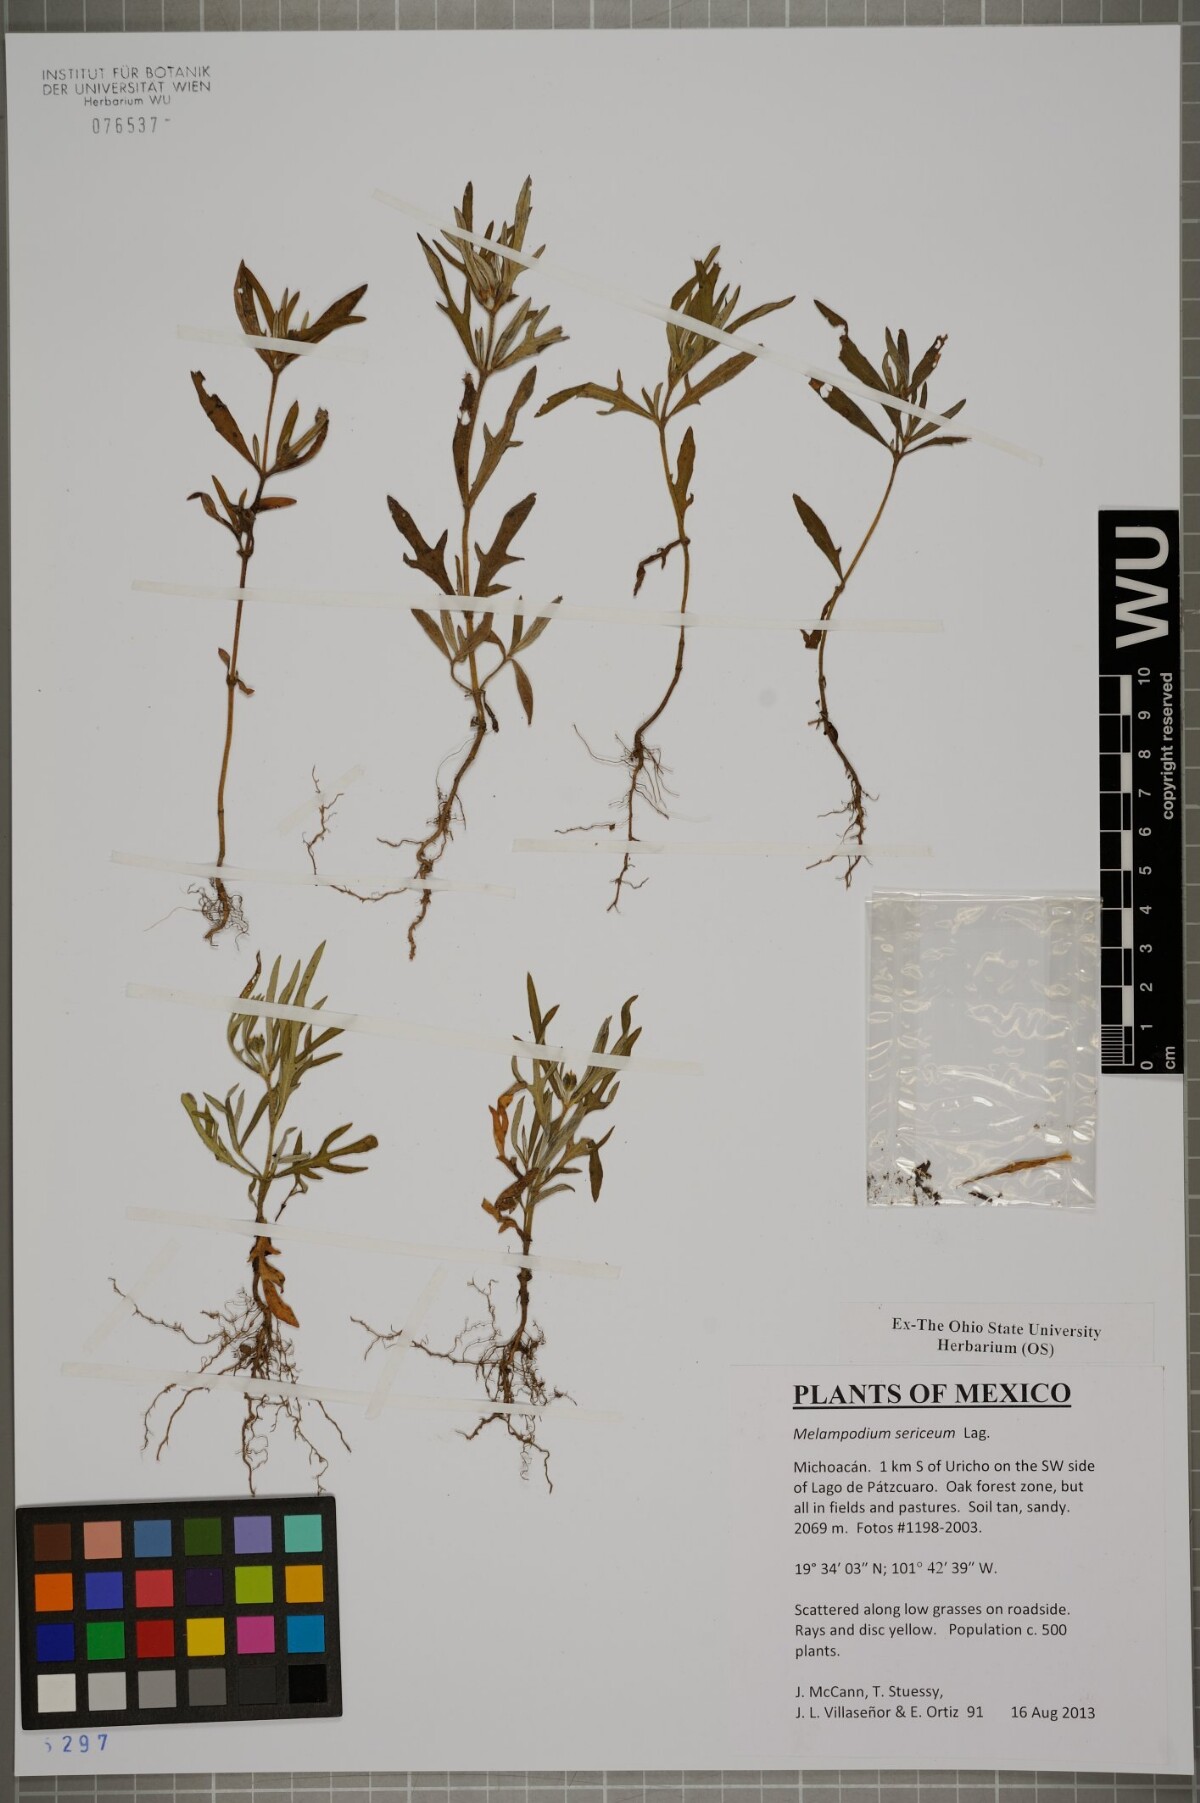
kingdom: Plantae
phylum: Tracheophyta
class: Magnoliopsida
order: Asterales
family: Asteraceae
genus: Melampodium
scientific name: Melampodium sericeum
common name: Rough blackfoot
